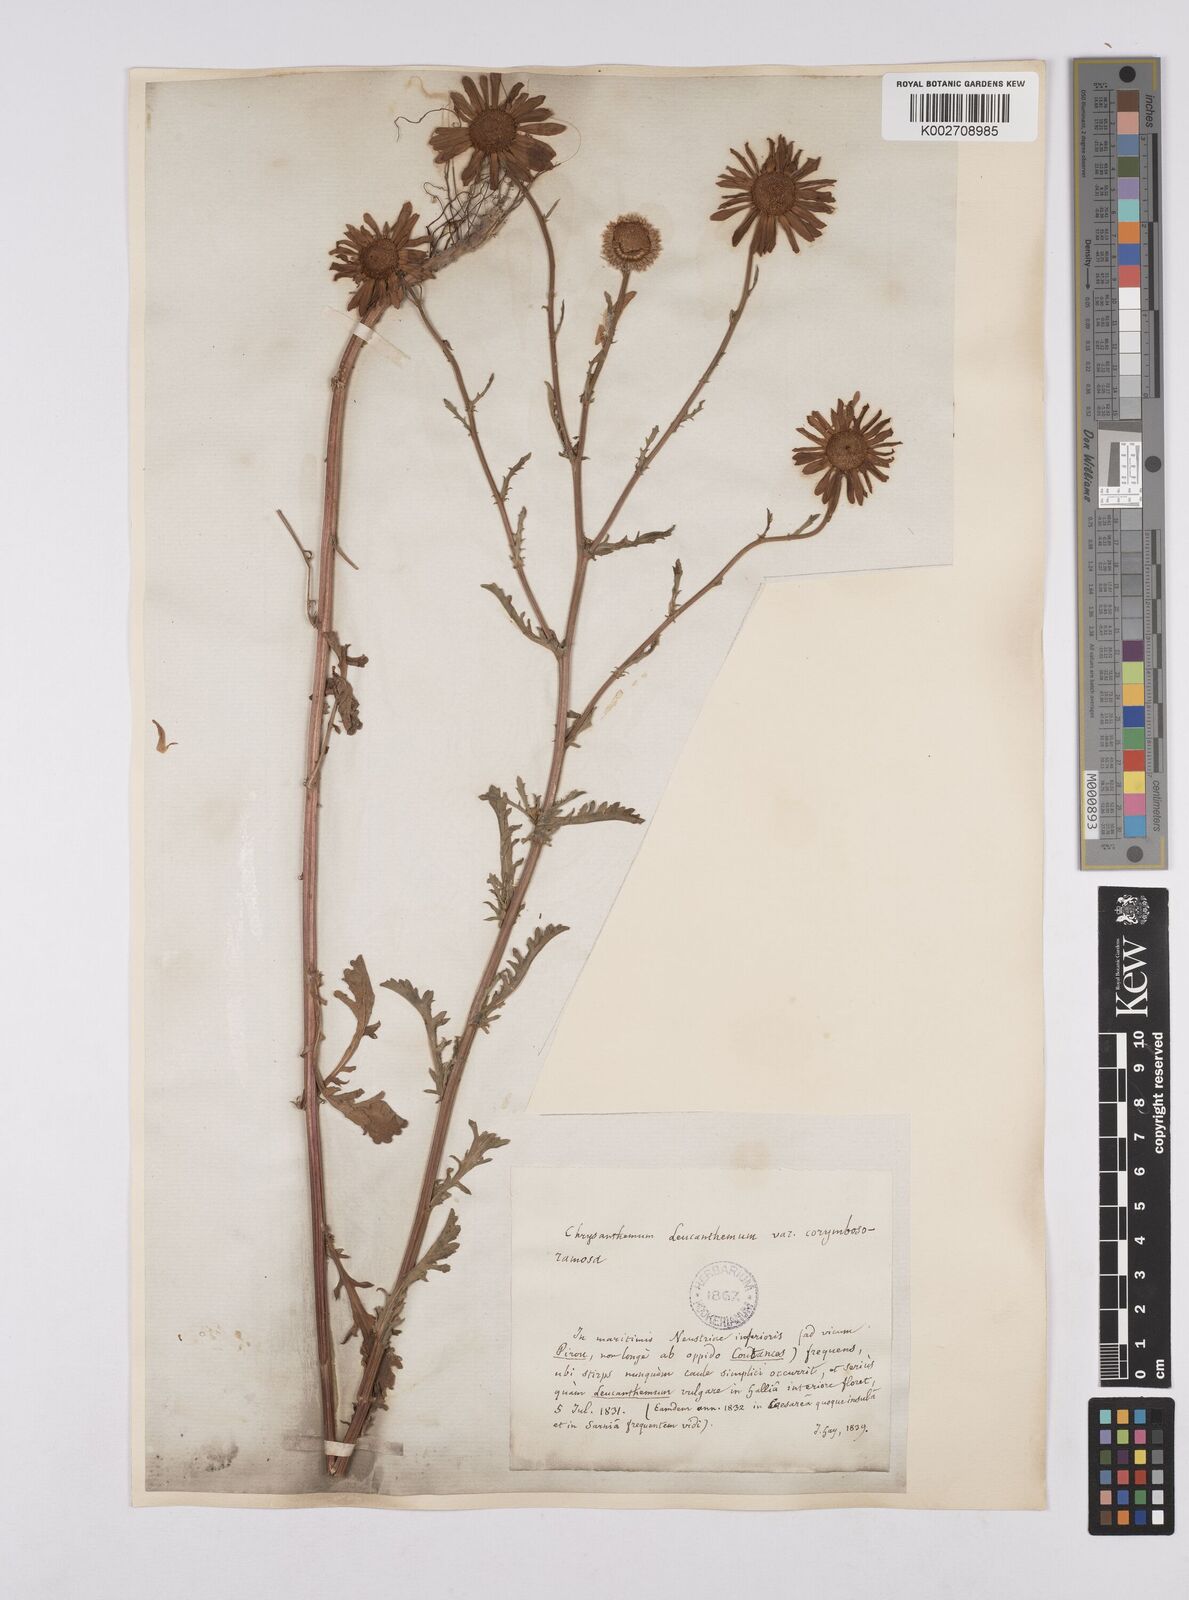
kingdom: Plantae
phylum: Tracheophyta
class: Magnoliopsida
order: Asterales
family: Asteraceae
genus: Leucanthemum
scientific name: Leucanthemum vulgare
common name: Oxeye daisy
